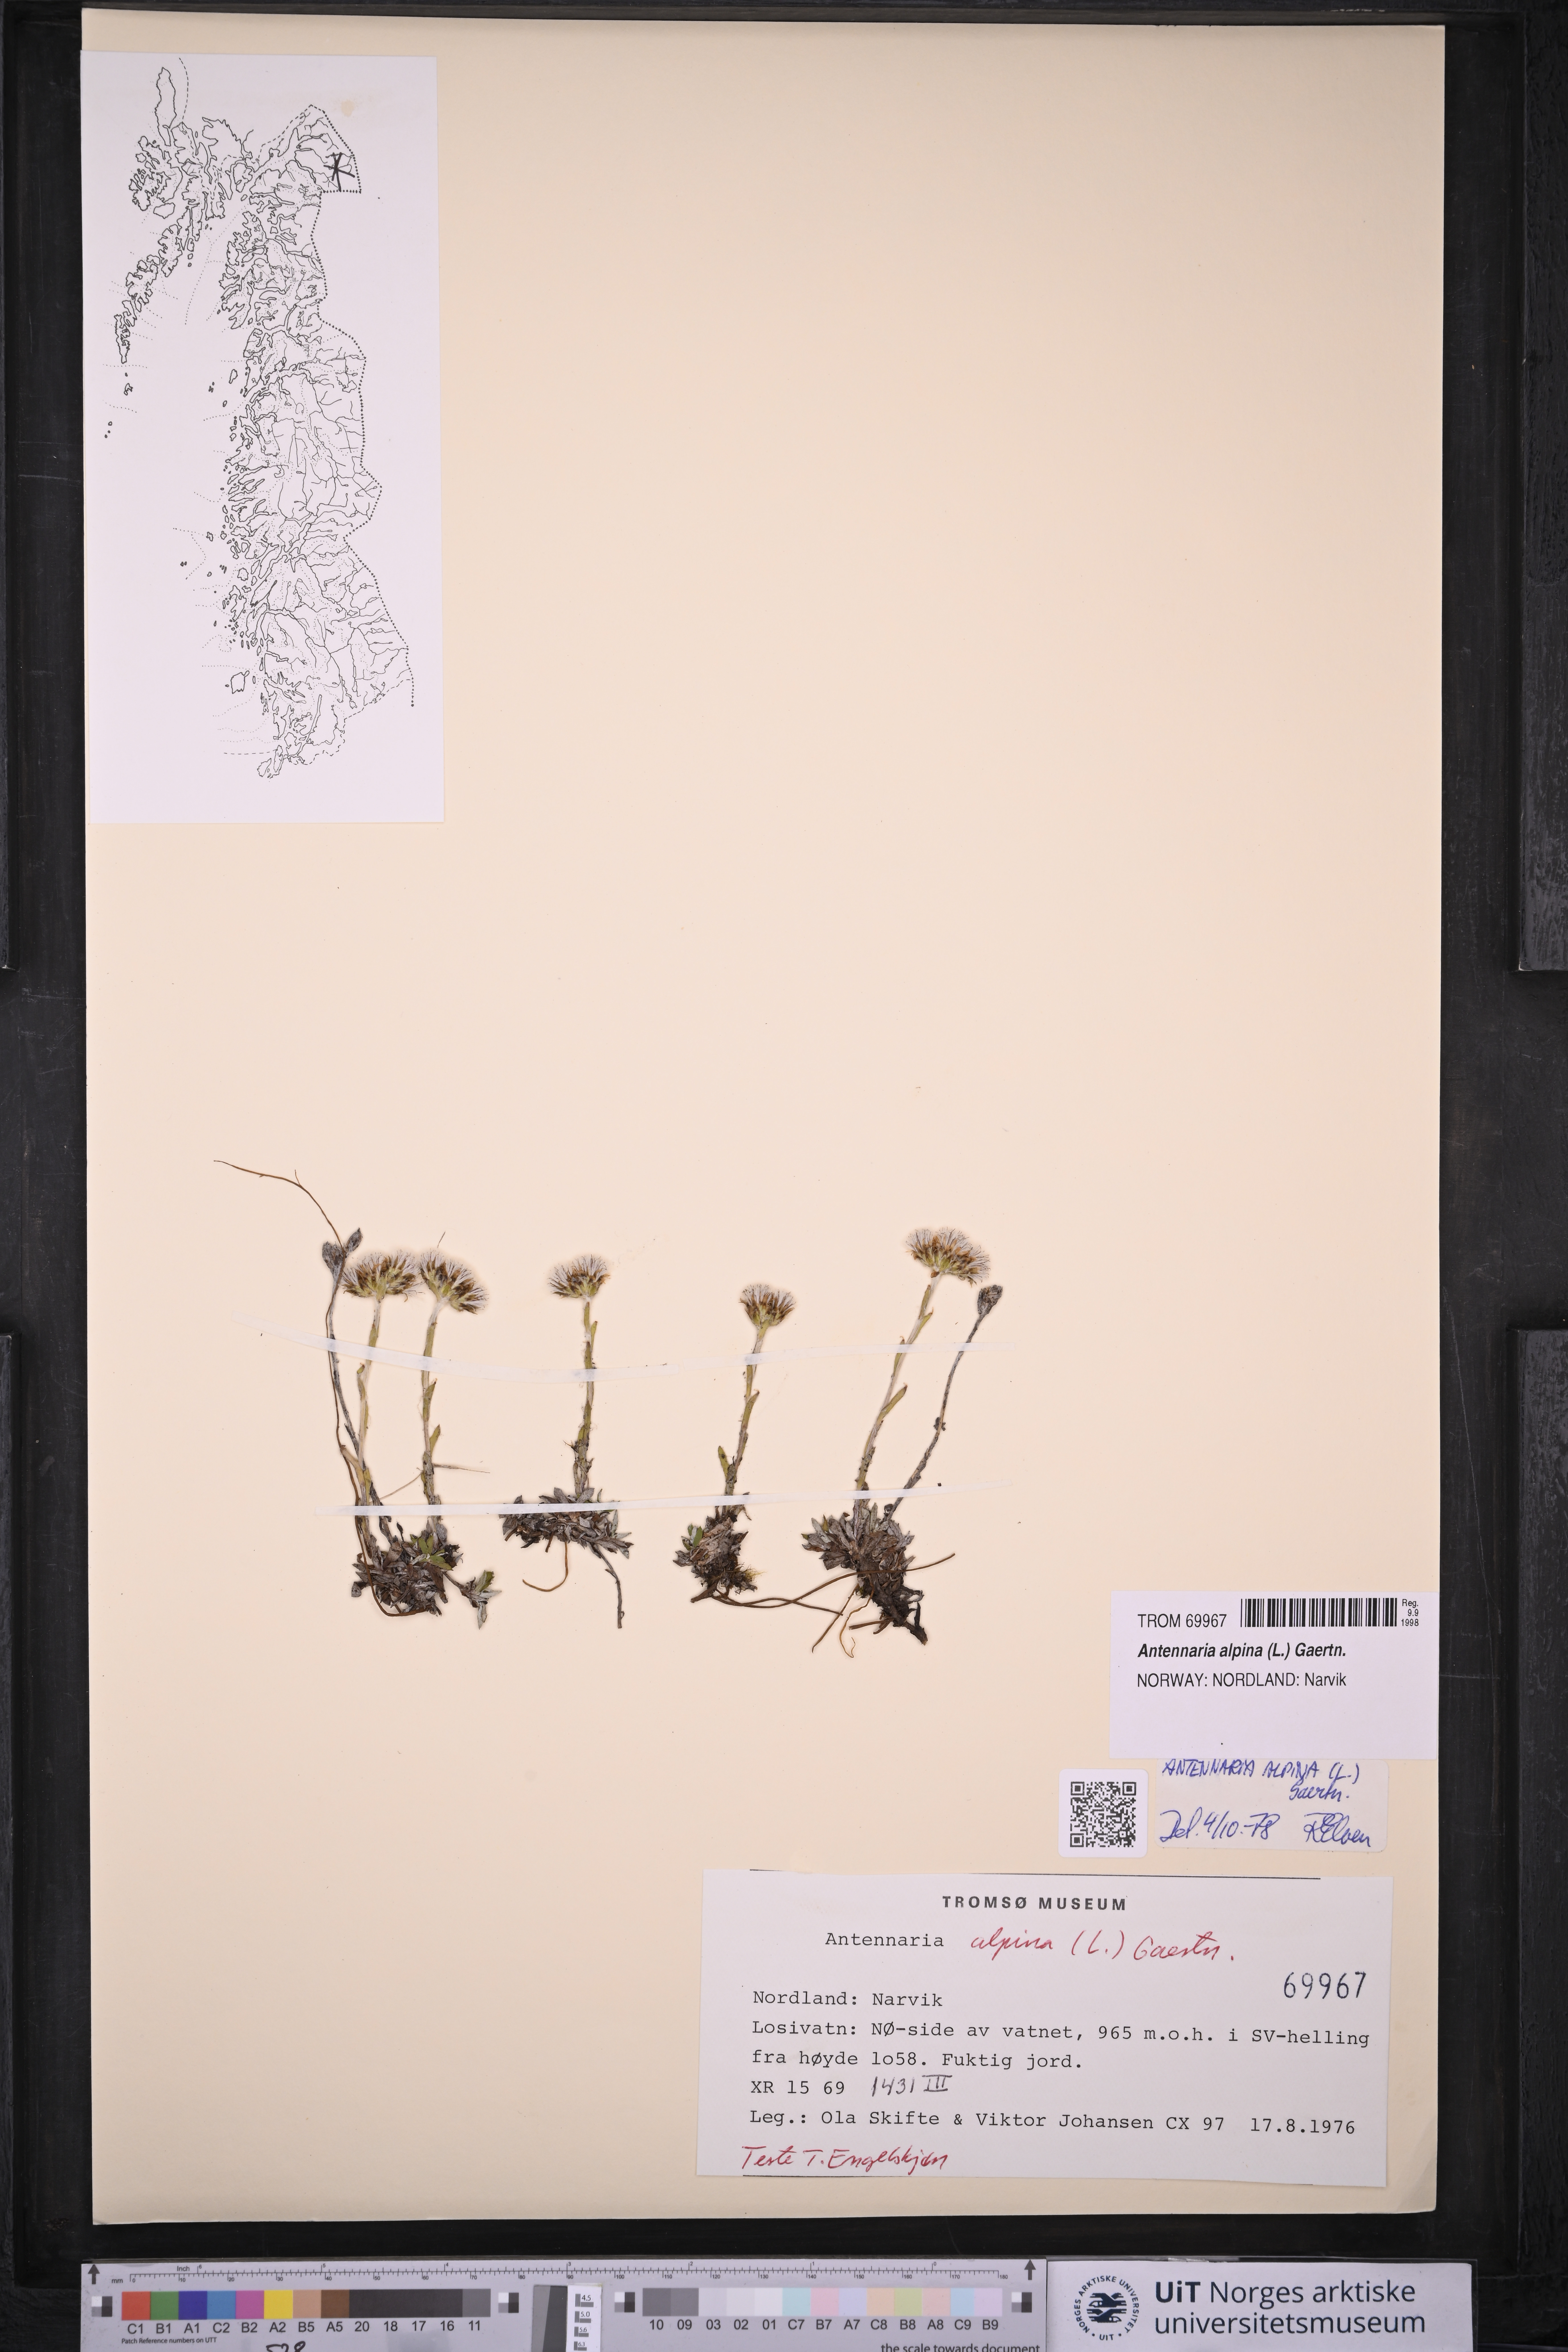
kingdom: Plantae
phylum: Tracheophyta
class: Magnoliopsida
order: Asterales
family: Asteraceae
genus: Antennaria
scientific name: Antennaria alpina
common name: Alpine pussytoes
